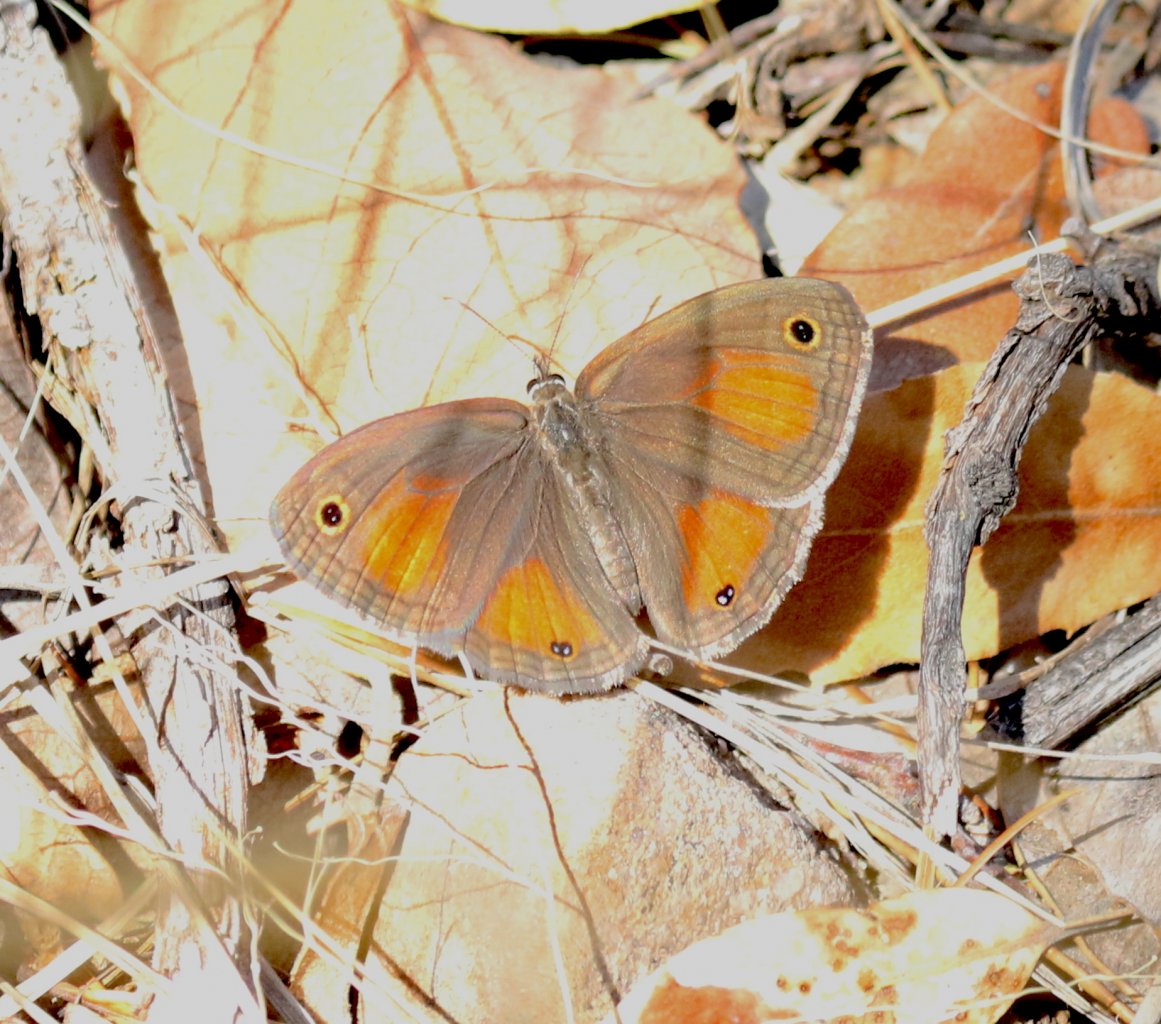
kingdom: Animalia
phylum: Arthropoda
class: Insecta
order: Lepidoptera
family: Nymphalidae
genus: Euptychia
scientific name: Euptychia rubricata
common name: Red Satyr
